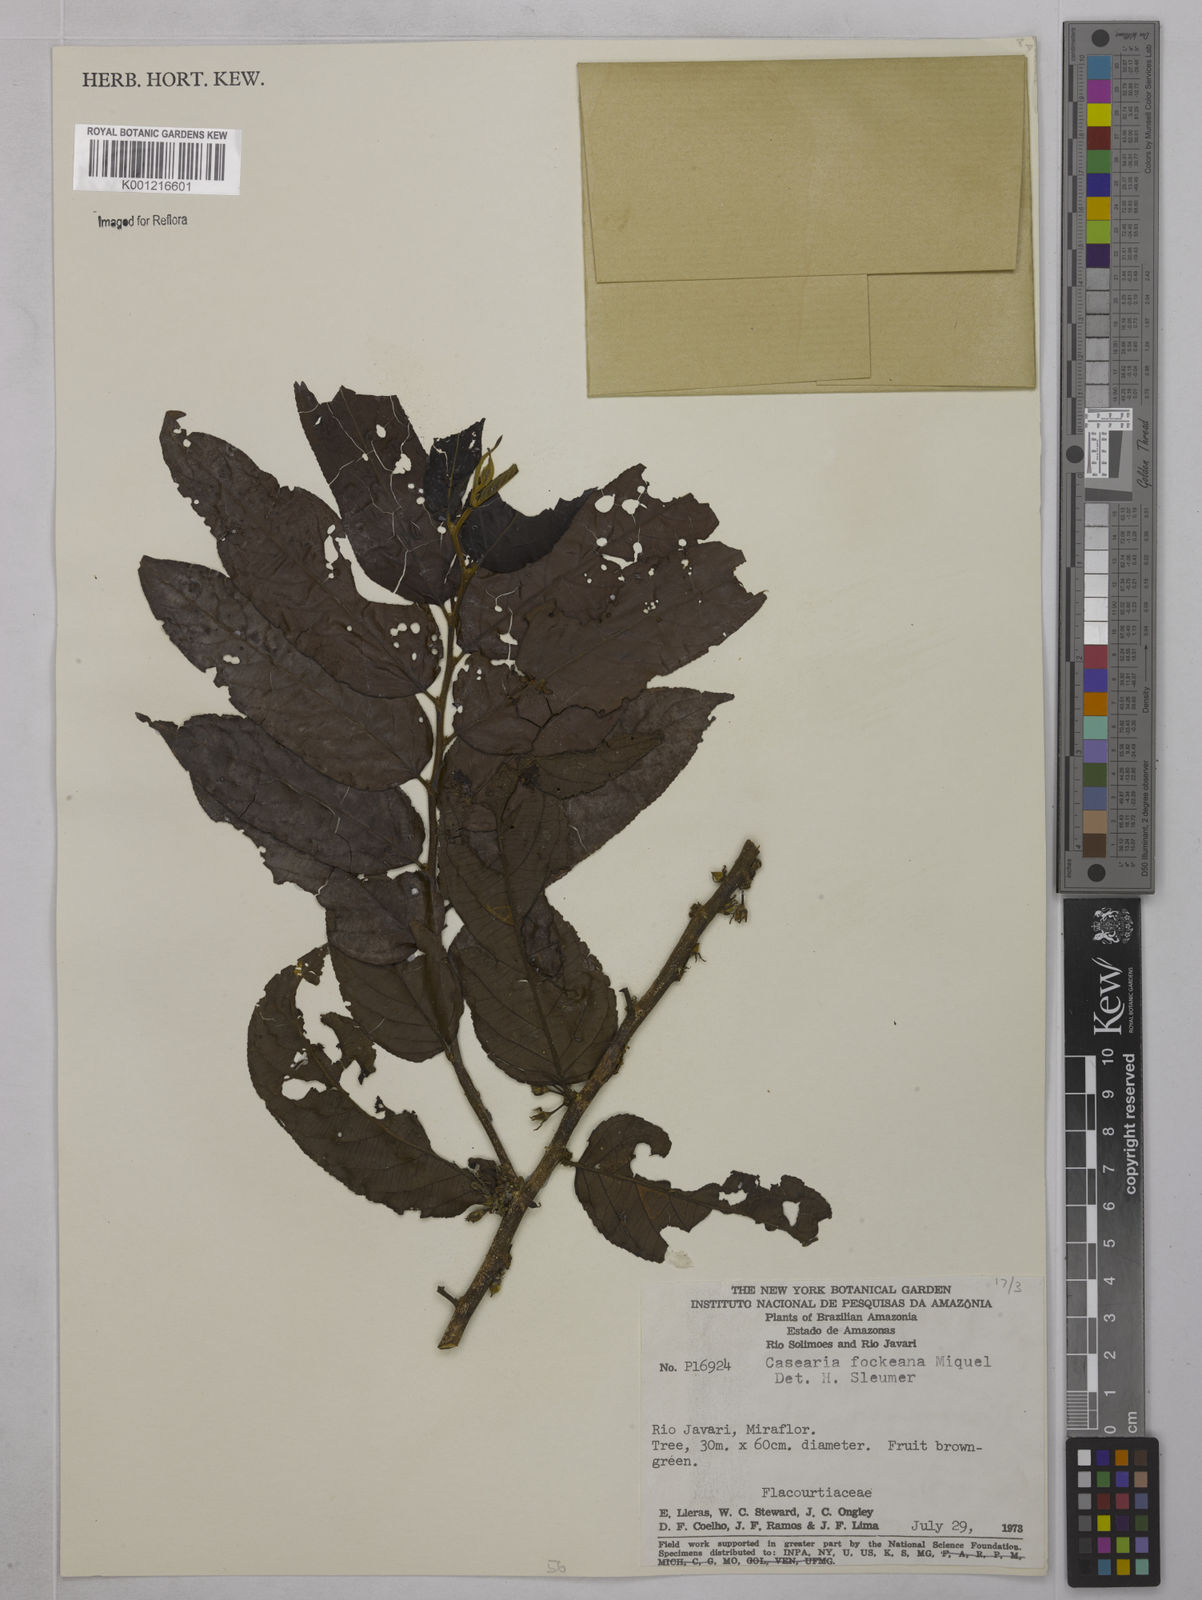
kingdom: Plantae
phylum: Tracheophyta
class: Magnoliopsida
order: Malpighiales
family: Salicaceae
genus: Casearia
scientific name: Casearia mariquitensis
